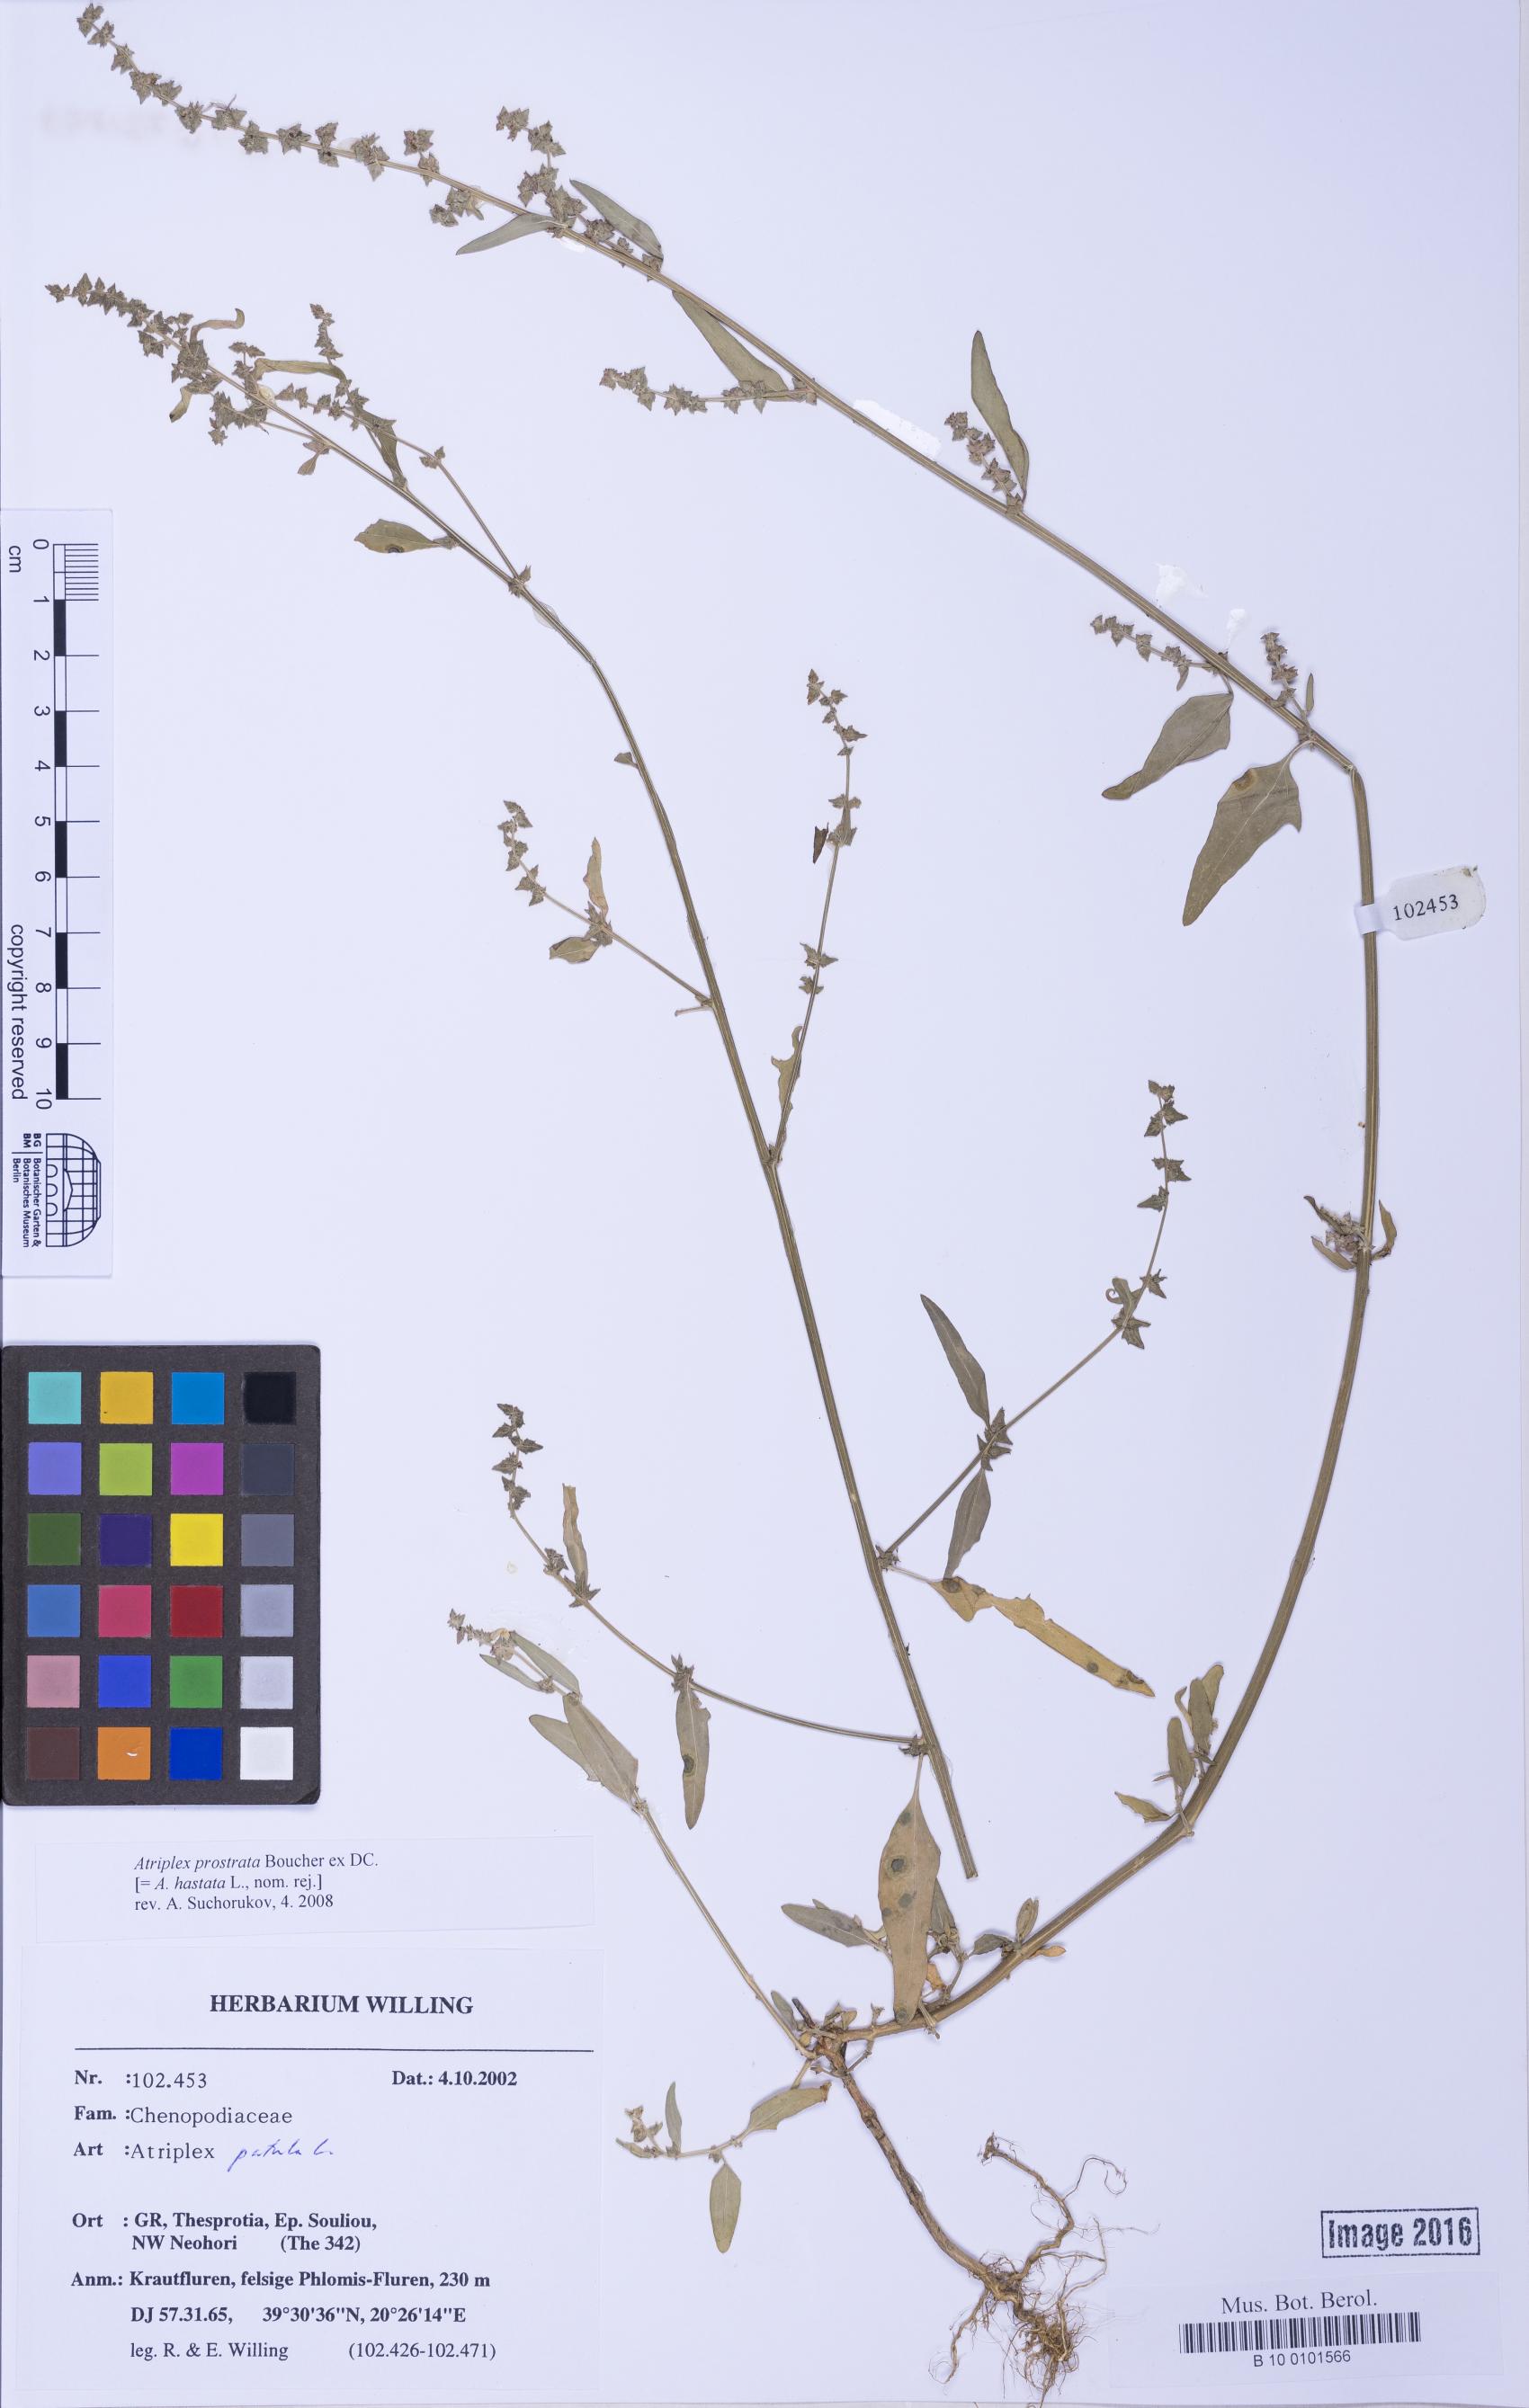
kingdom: Plantae
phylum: Tracheophyta
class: Magnoliopsida
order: Caryophyllales
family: Amaranthaceae
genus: Atriplex
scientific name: Atriplex prostrata
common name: Spear-leaved orache
